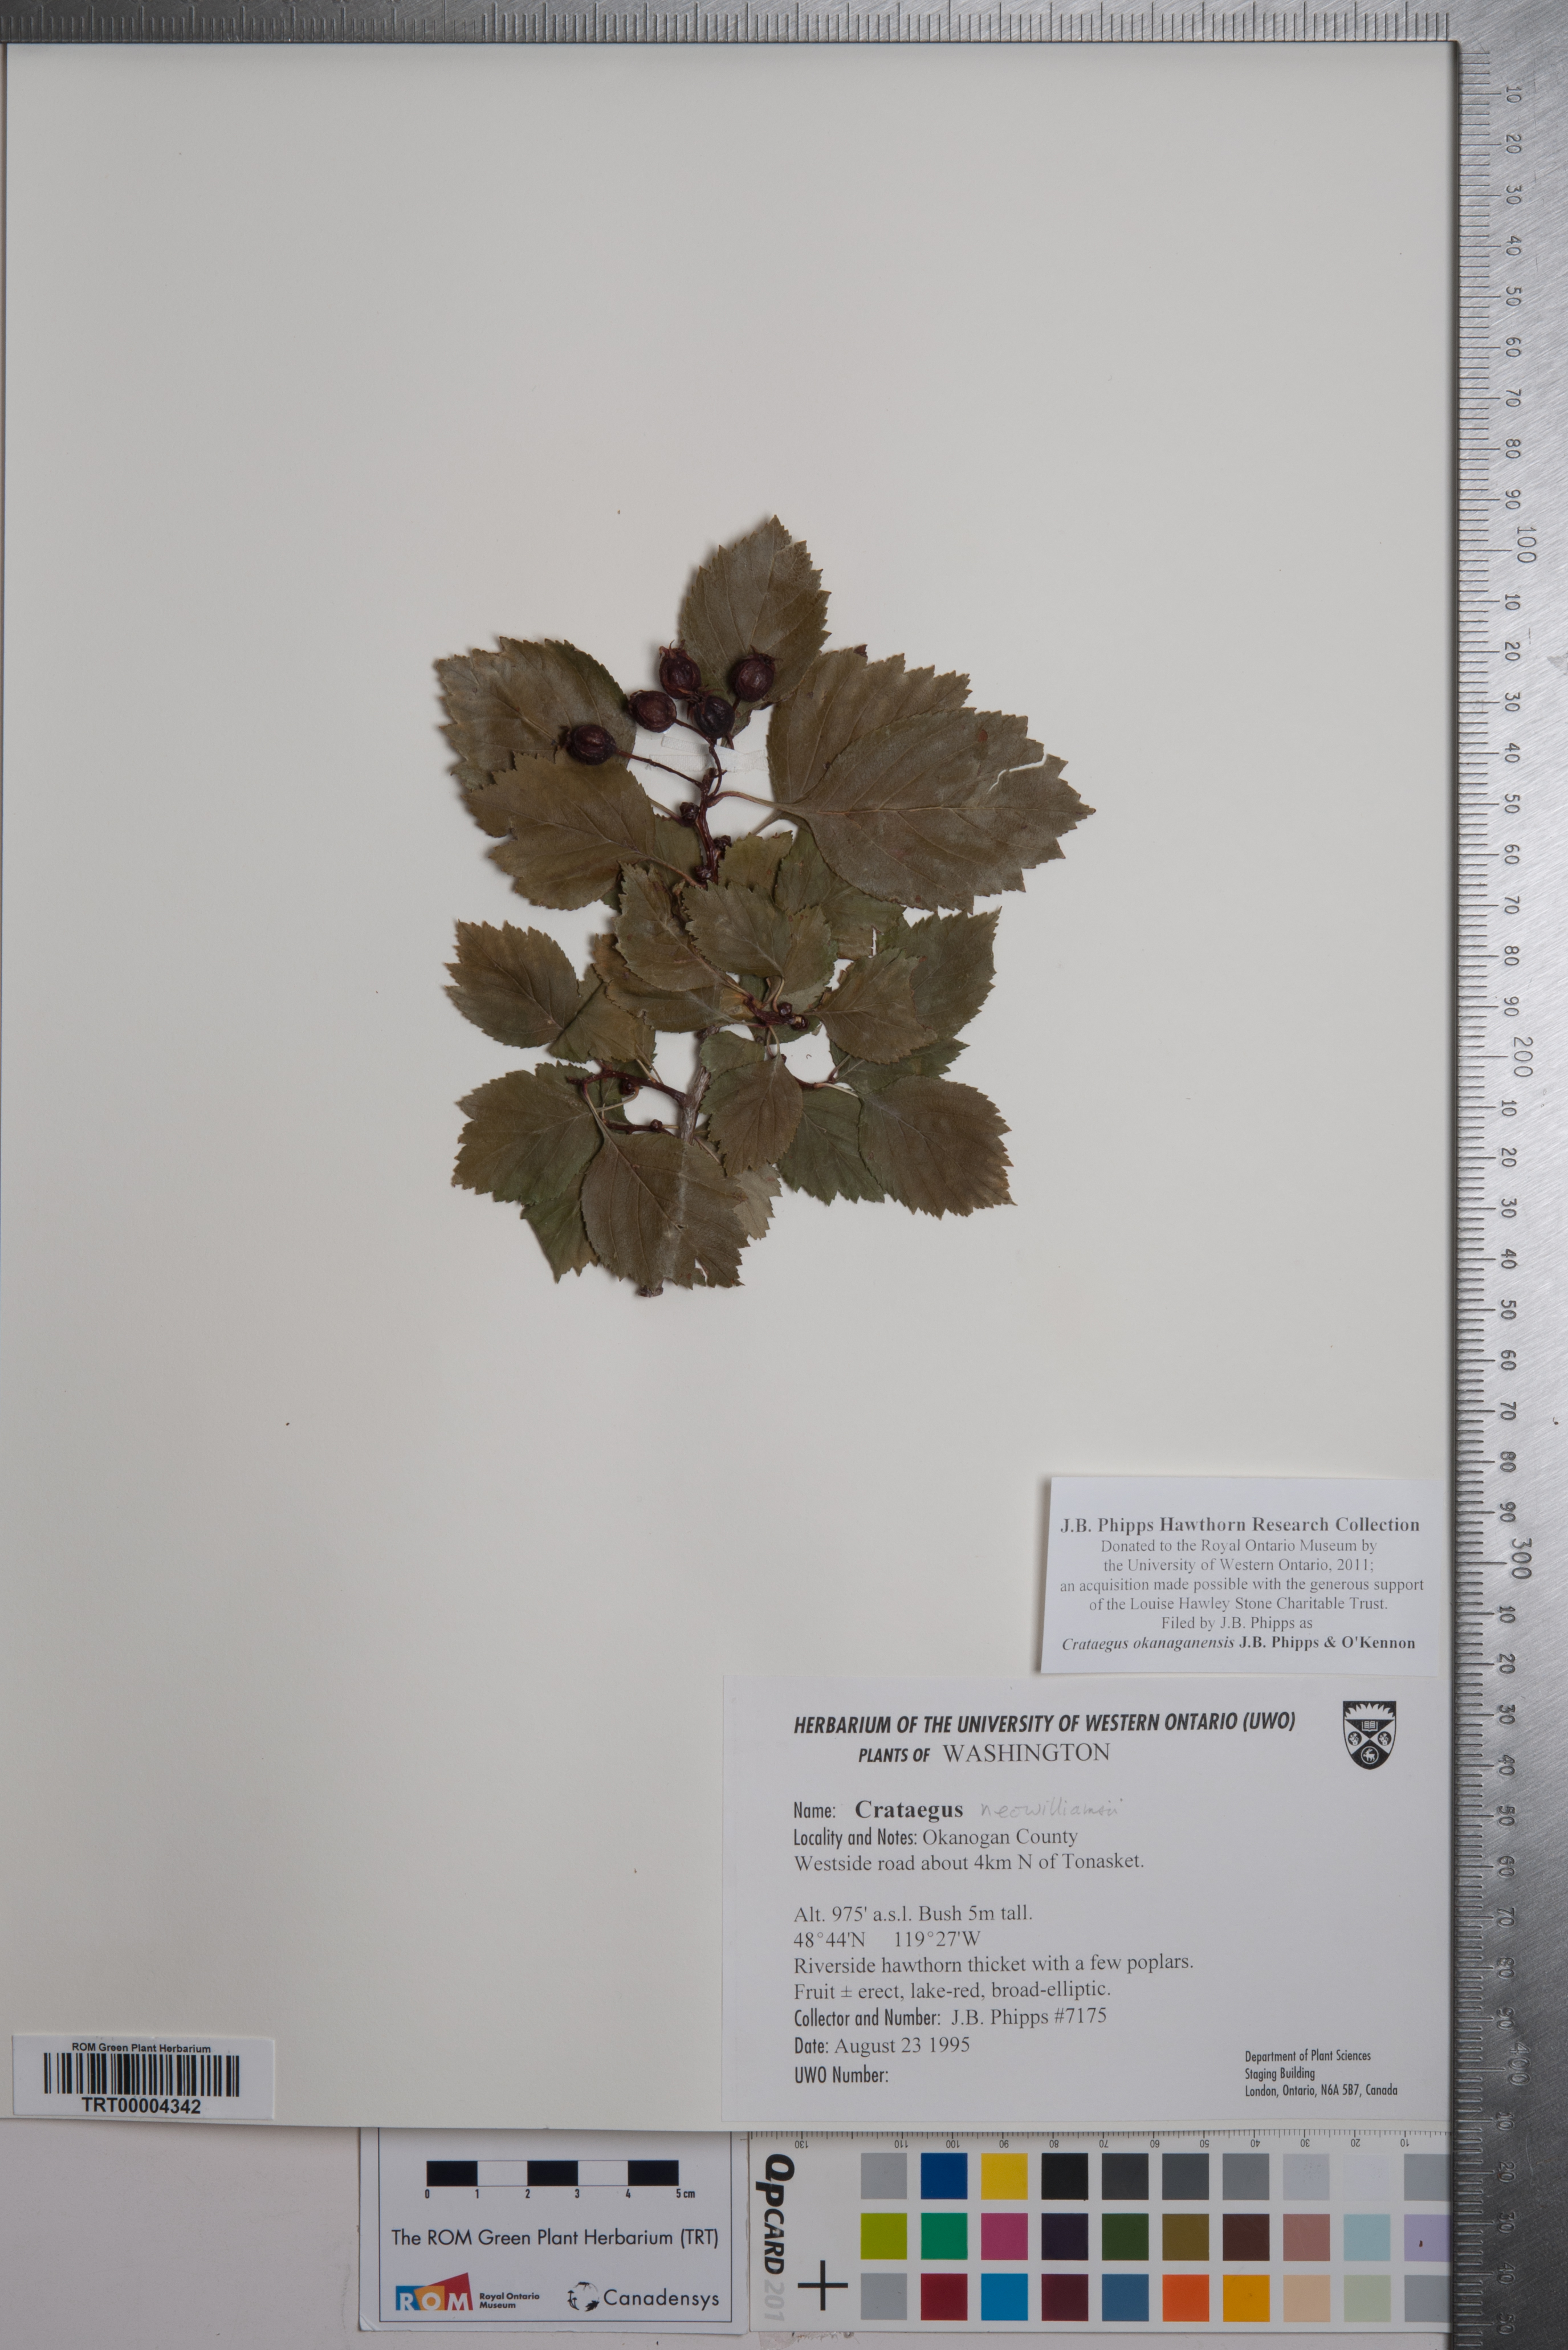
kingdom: Plantae
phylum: Tracheophyta
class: Magnoliopsida
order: Rosales
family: Rosaceae
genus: Crataegus
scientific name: Crataegus okanaganensis
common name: Okanagan valley hawthorn
